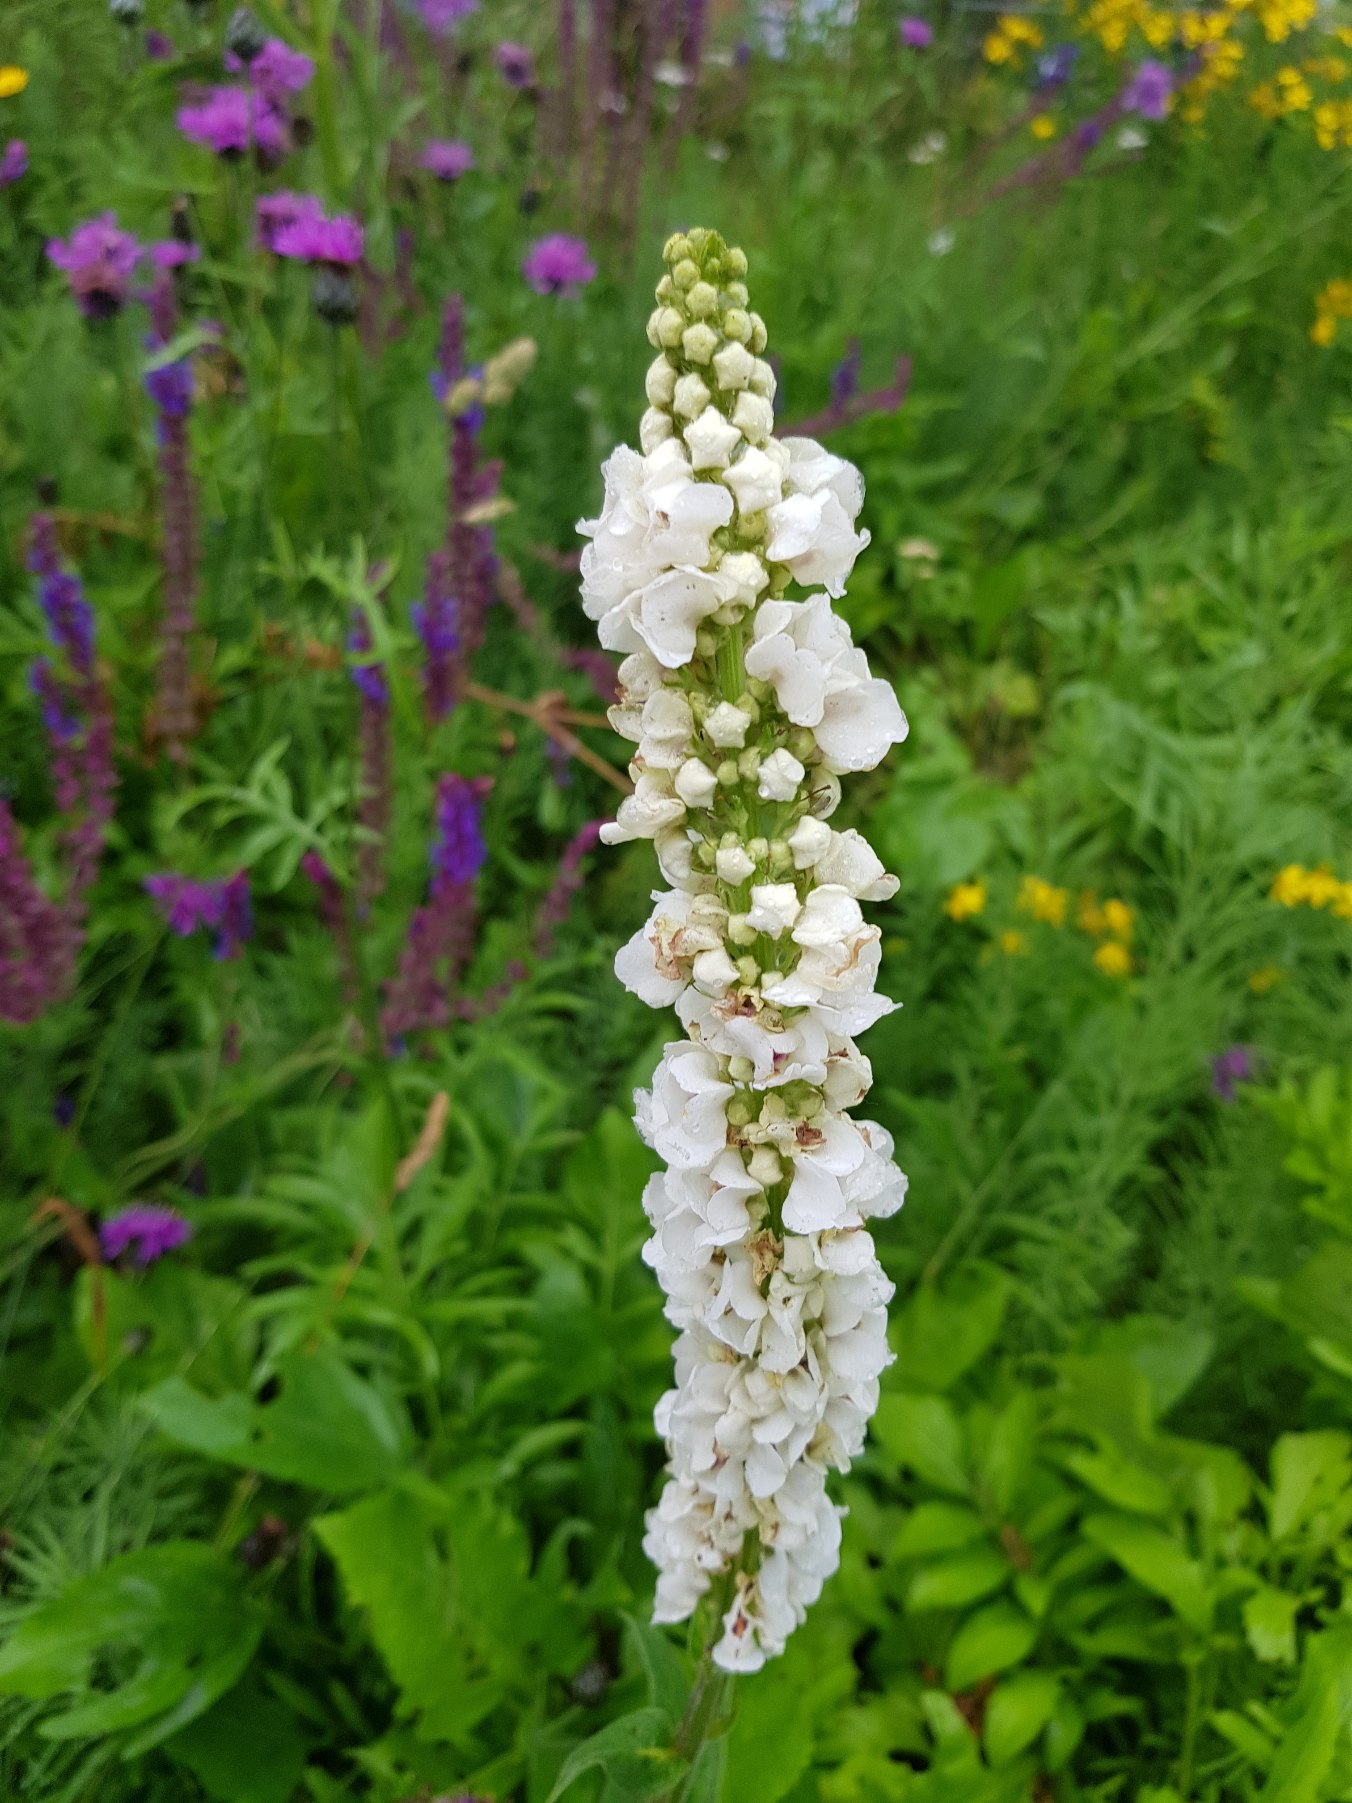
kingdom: Plantae
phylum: Tracheophyta
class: Magnoliopsida
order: Lamiales
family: Scrophulariaceae
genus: Verbascum
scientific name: Verbascum nigrum
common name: Mørk kongelys
